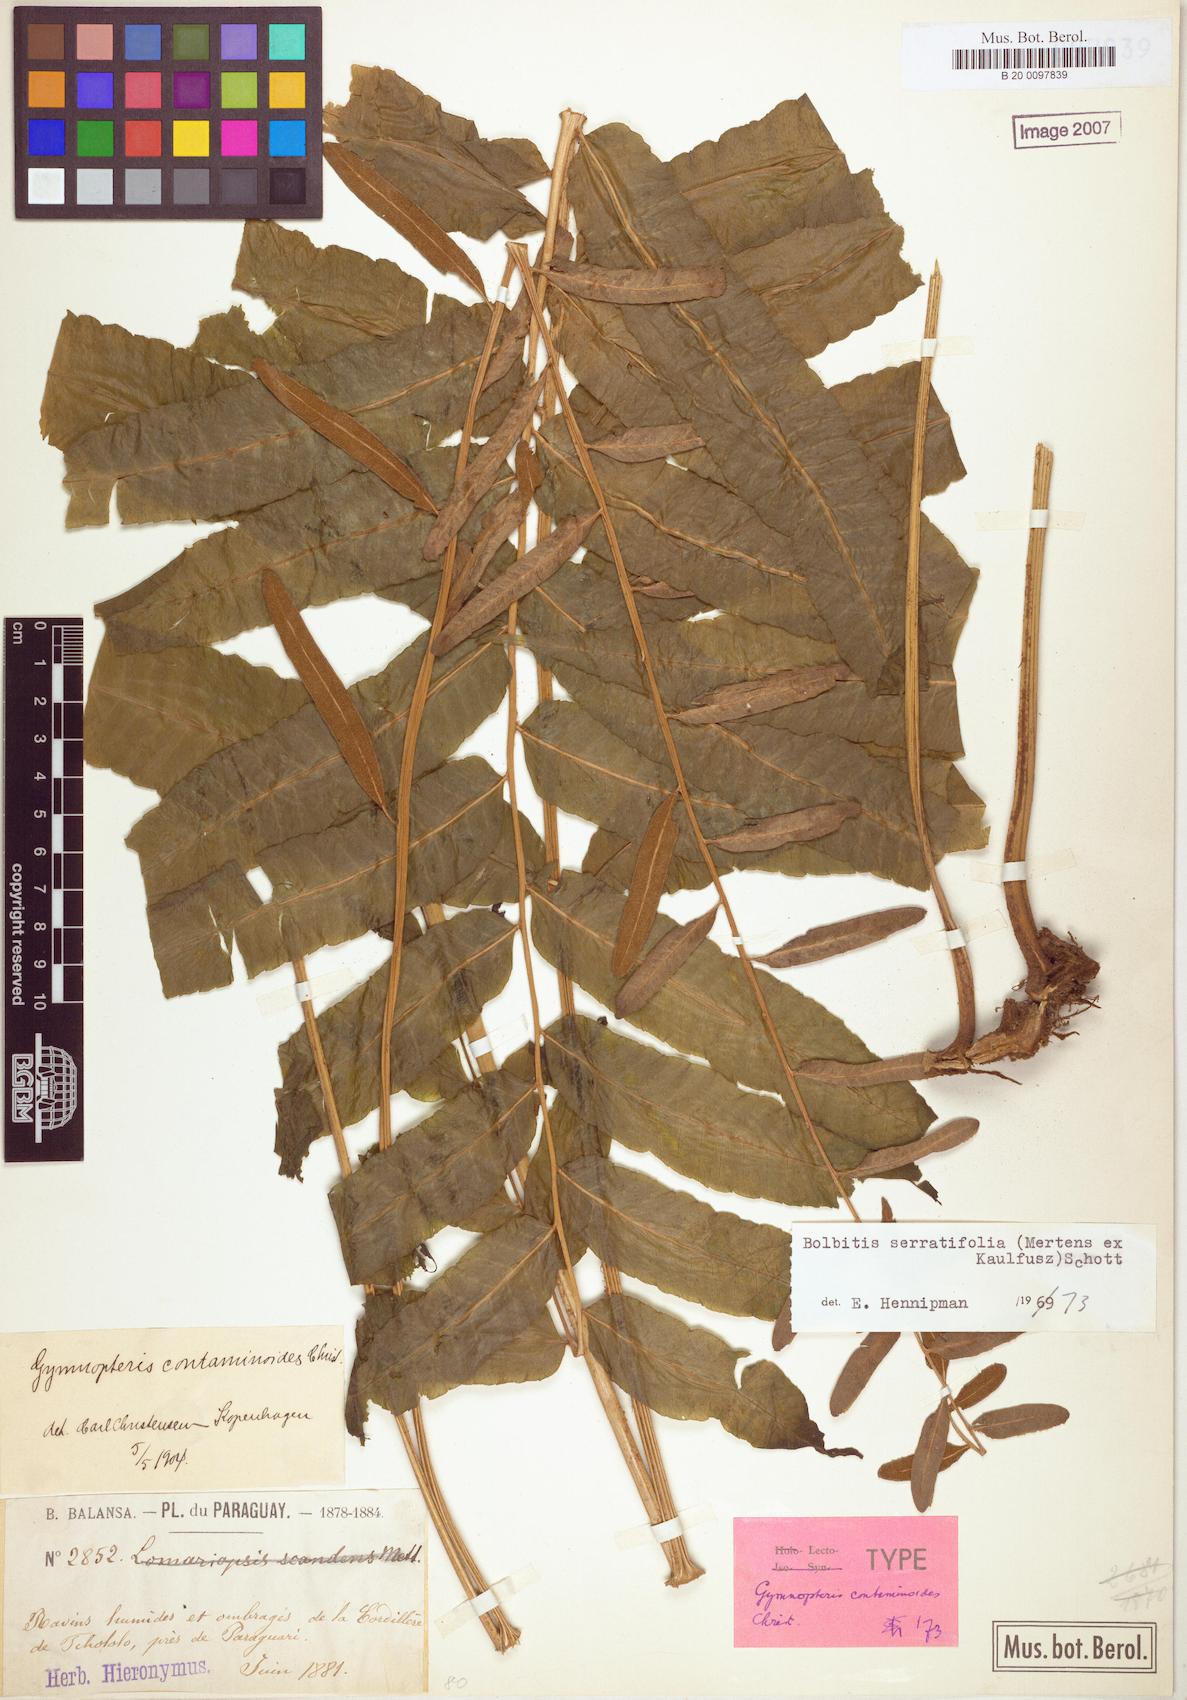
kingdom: Plantae
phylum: Tracheophyta
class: Polypodiopsida
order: Polypodiales
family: Dryopteridaceae
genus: Bolbitis
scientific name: Bolbitis serratifolia
